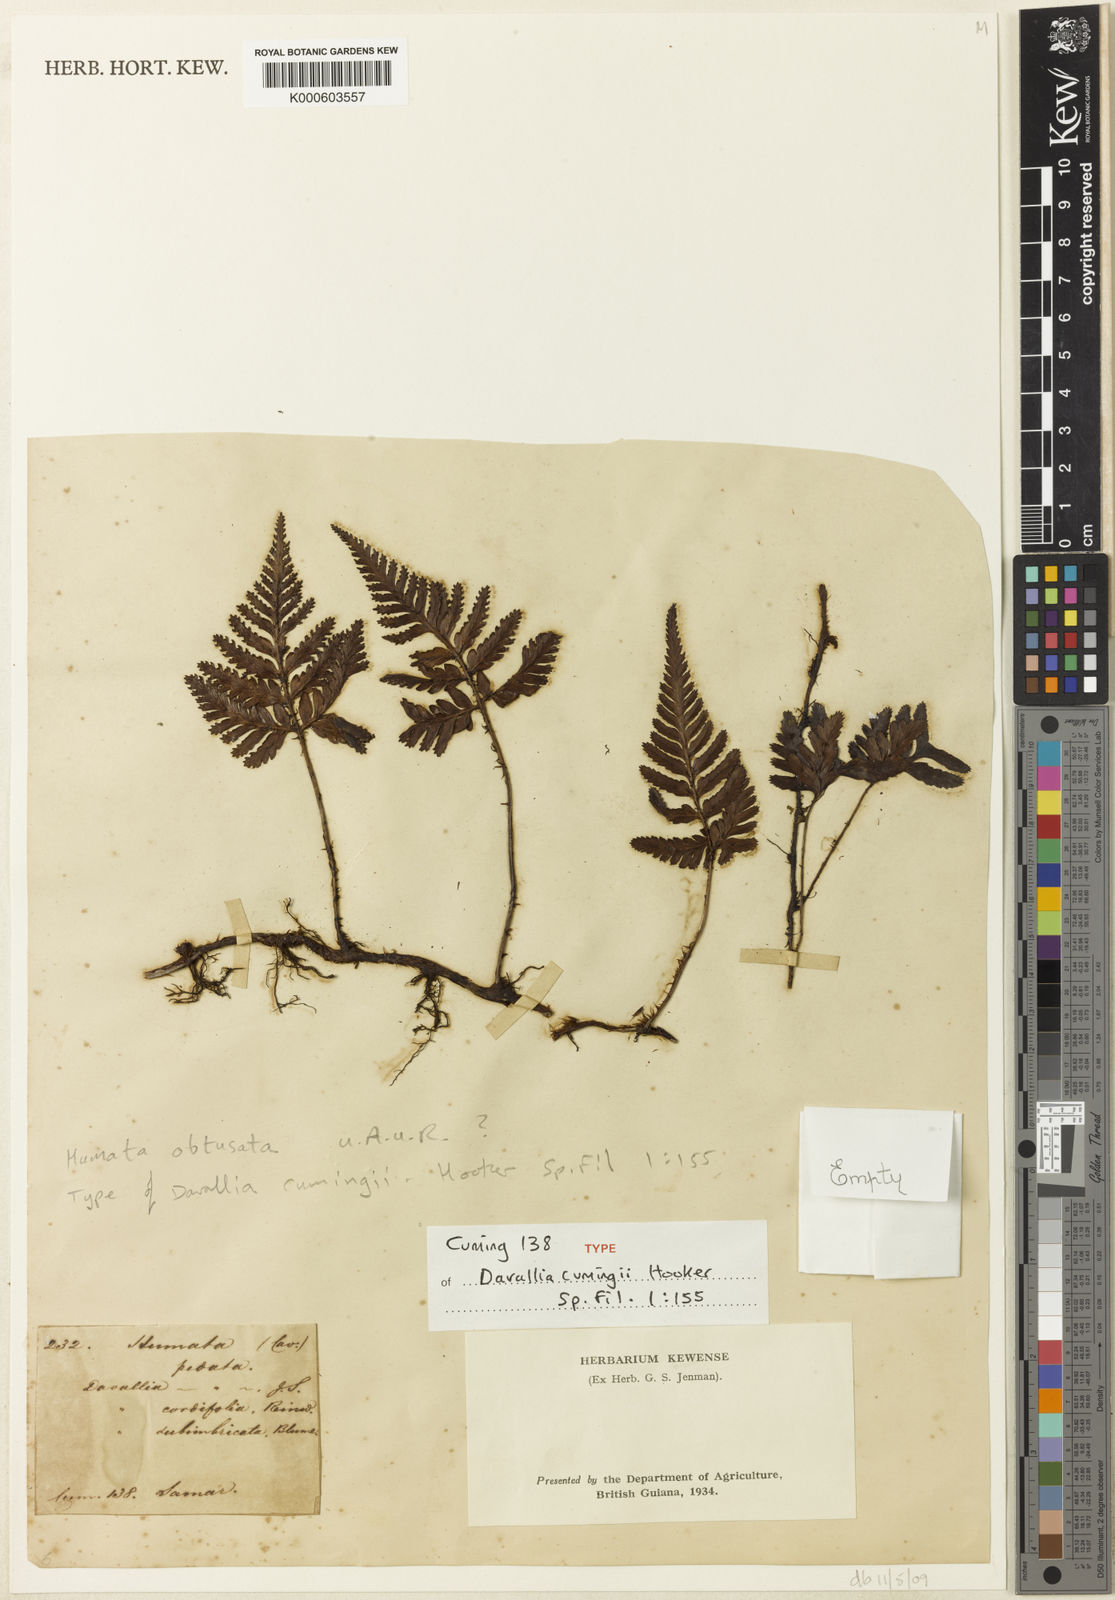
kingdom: Plantae
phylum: Tracheophyta
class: Polypodiopsida
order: Polypodiales
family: Davalliaceae
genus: Davallia
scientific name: Davallia repens
